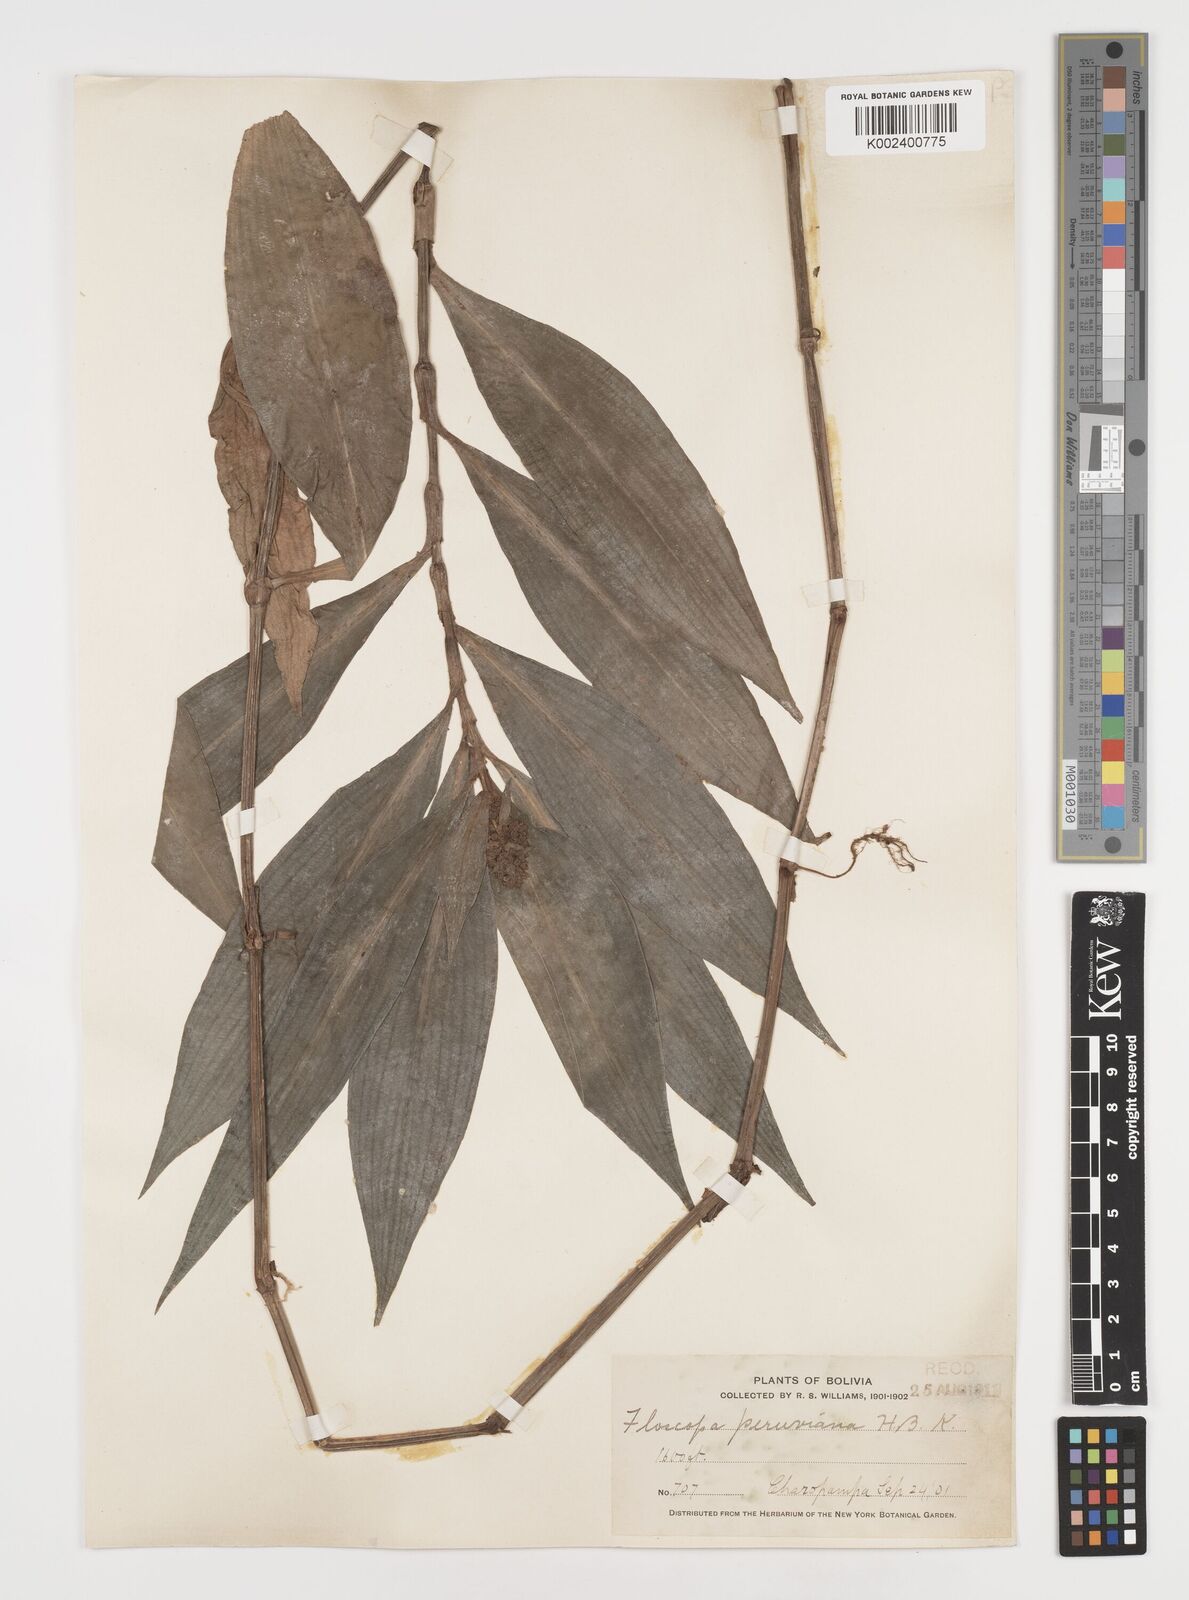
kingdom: Plantae
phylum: Tracheophyta
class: Liliopsida
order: Commelinales
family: Commelinaceae
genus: Floscopa
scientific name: Floscopa peruviana
